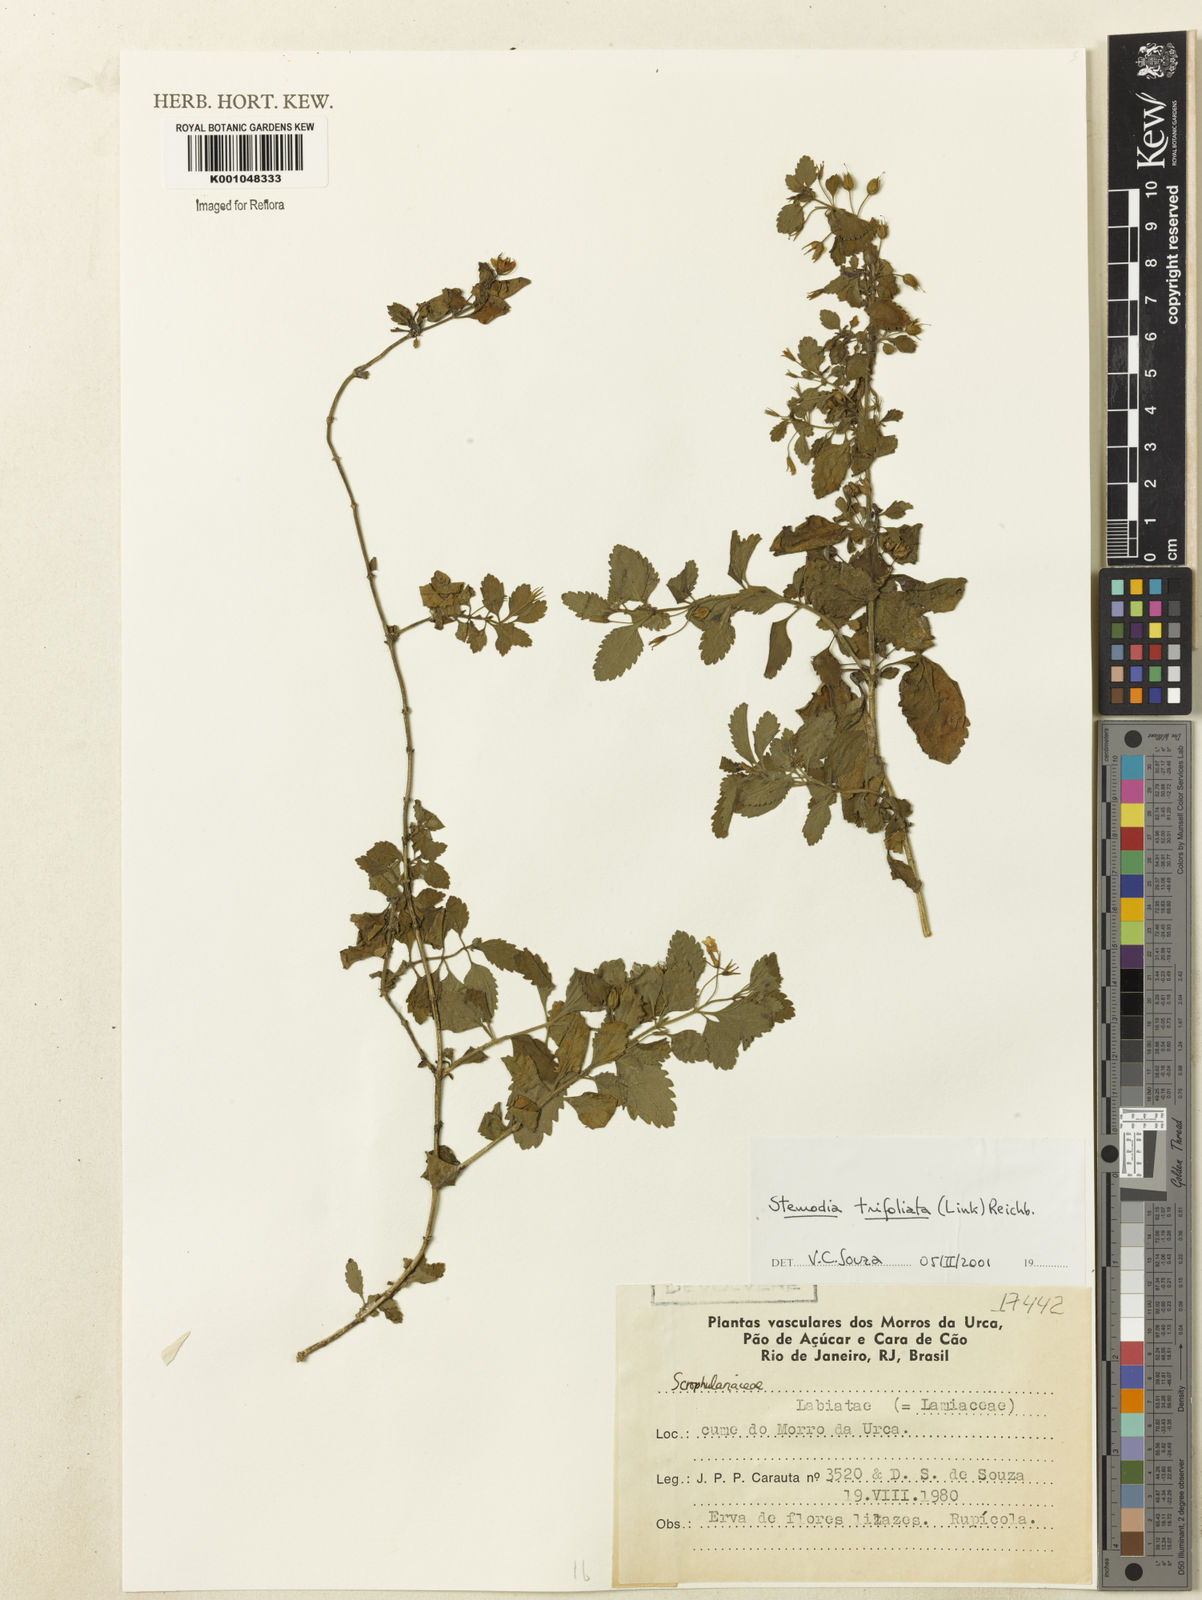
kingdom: Plantae
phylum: Tracheophyta
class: Magnoliopsida
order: Lamiales
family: Plantaginaceae
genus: Stemodia
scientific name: Stemodia trifoliata
